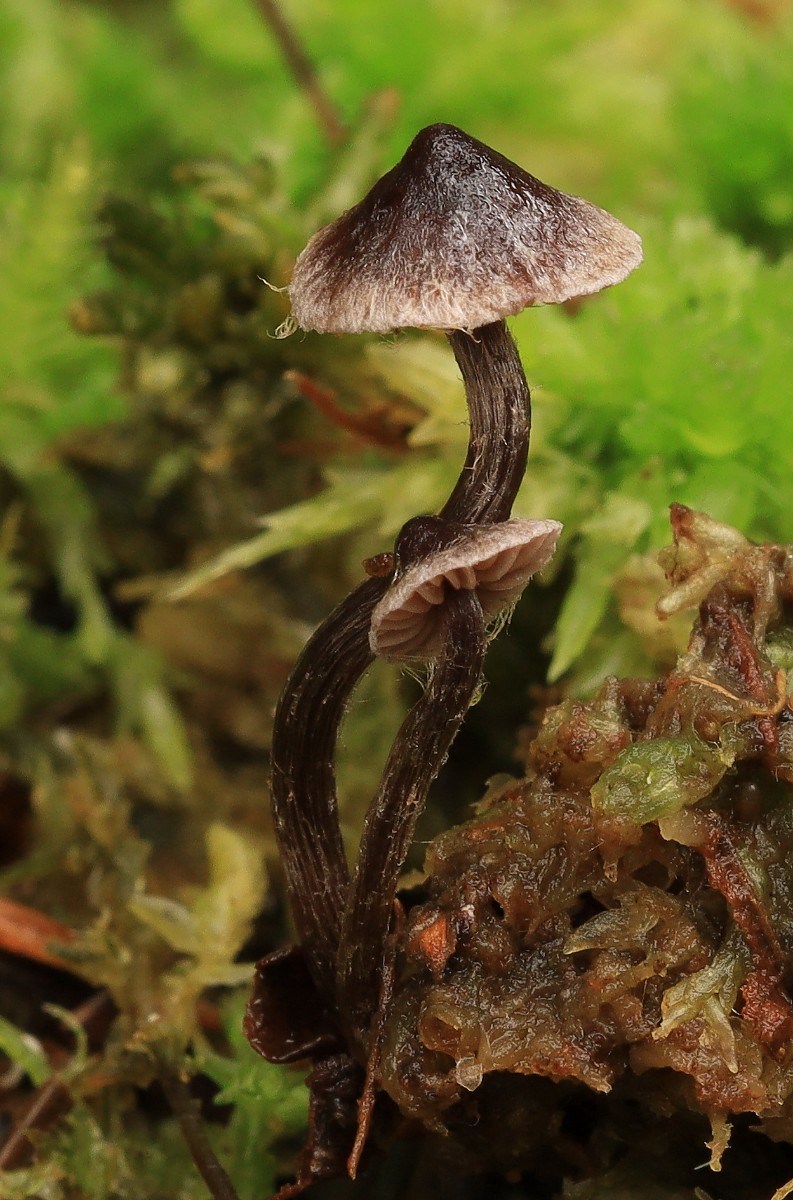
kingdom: Fungi
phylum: Basidiomycota
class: Agaricomycetes
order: Agaricales
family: Cortinariaceae
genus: Cortinarius
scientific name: Cortinarius americanus
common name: natsort slørhat
